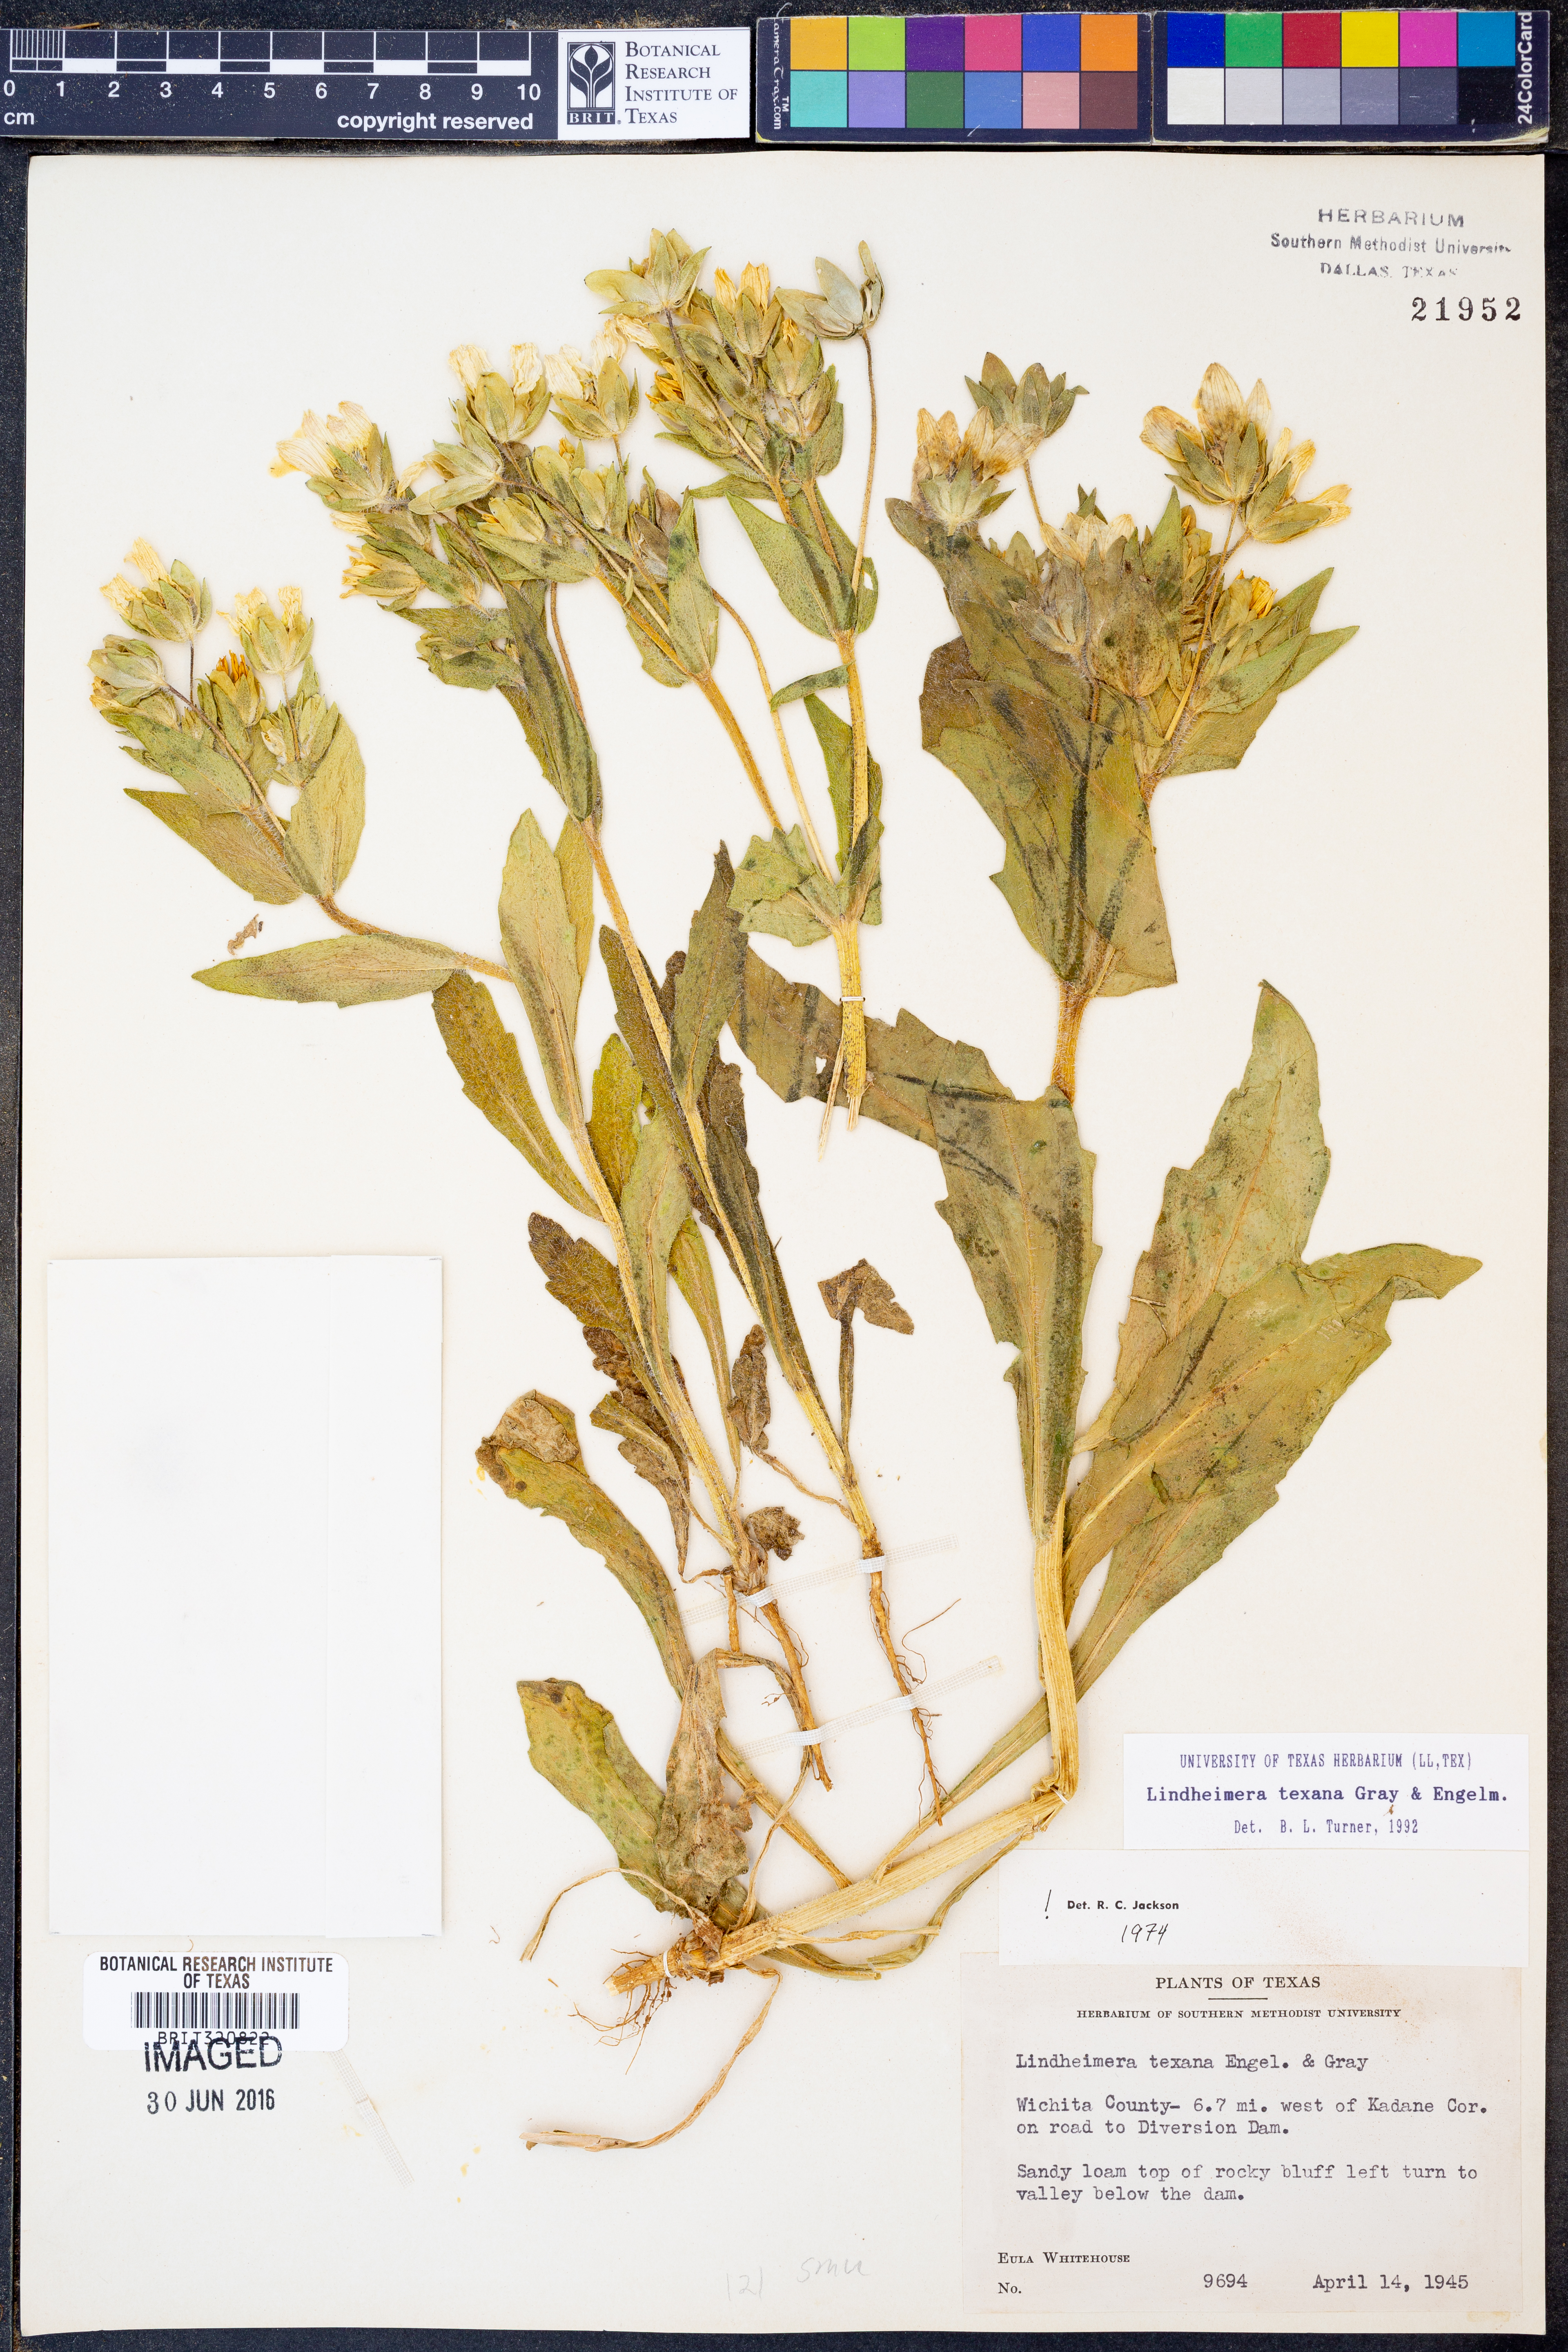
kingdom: Plantae
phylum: Tracheophyta
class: Magnoliopsida
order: Asterales
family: Asteraceae
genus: Lindheimera
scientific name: Lindheimera texana
